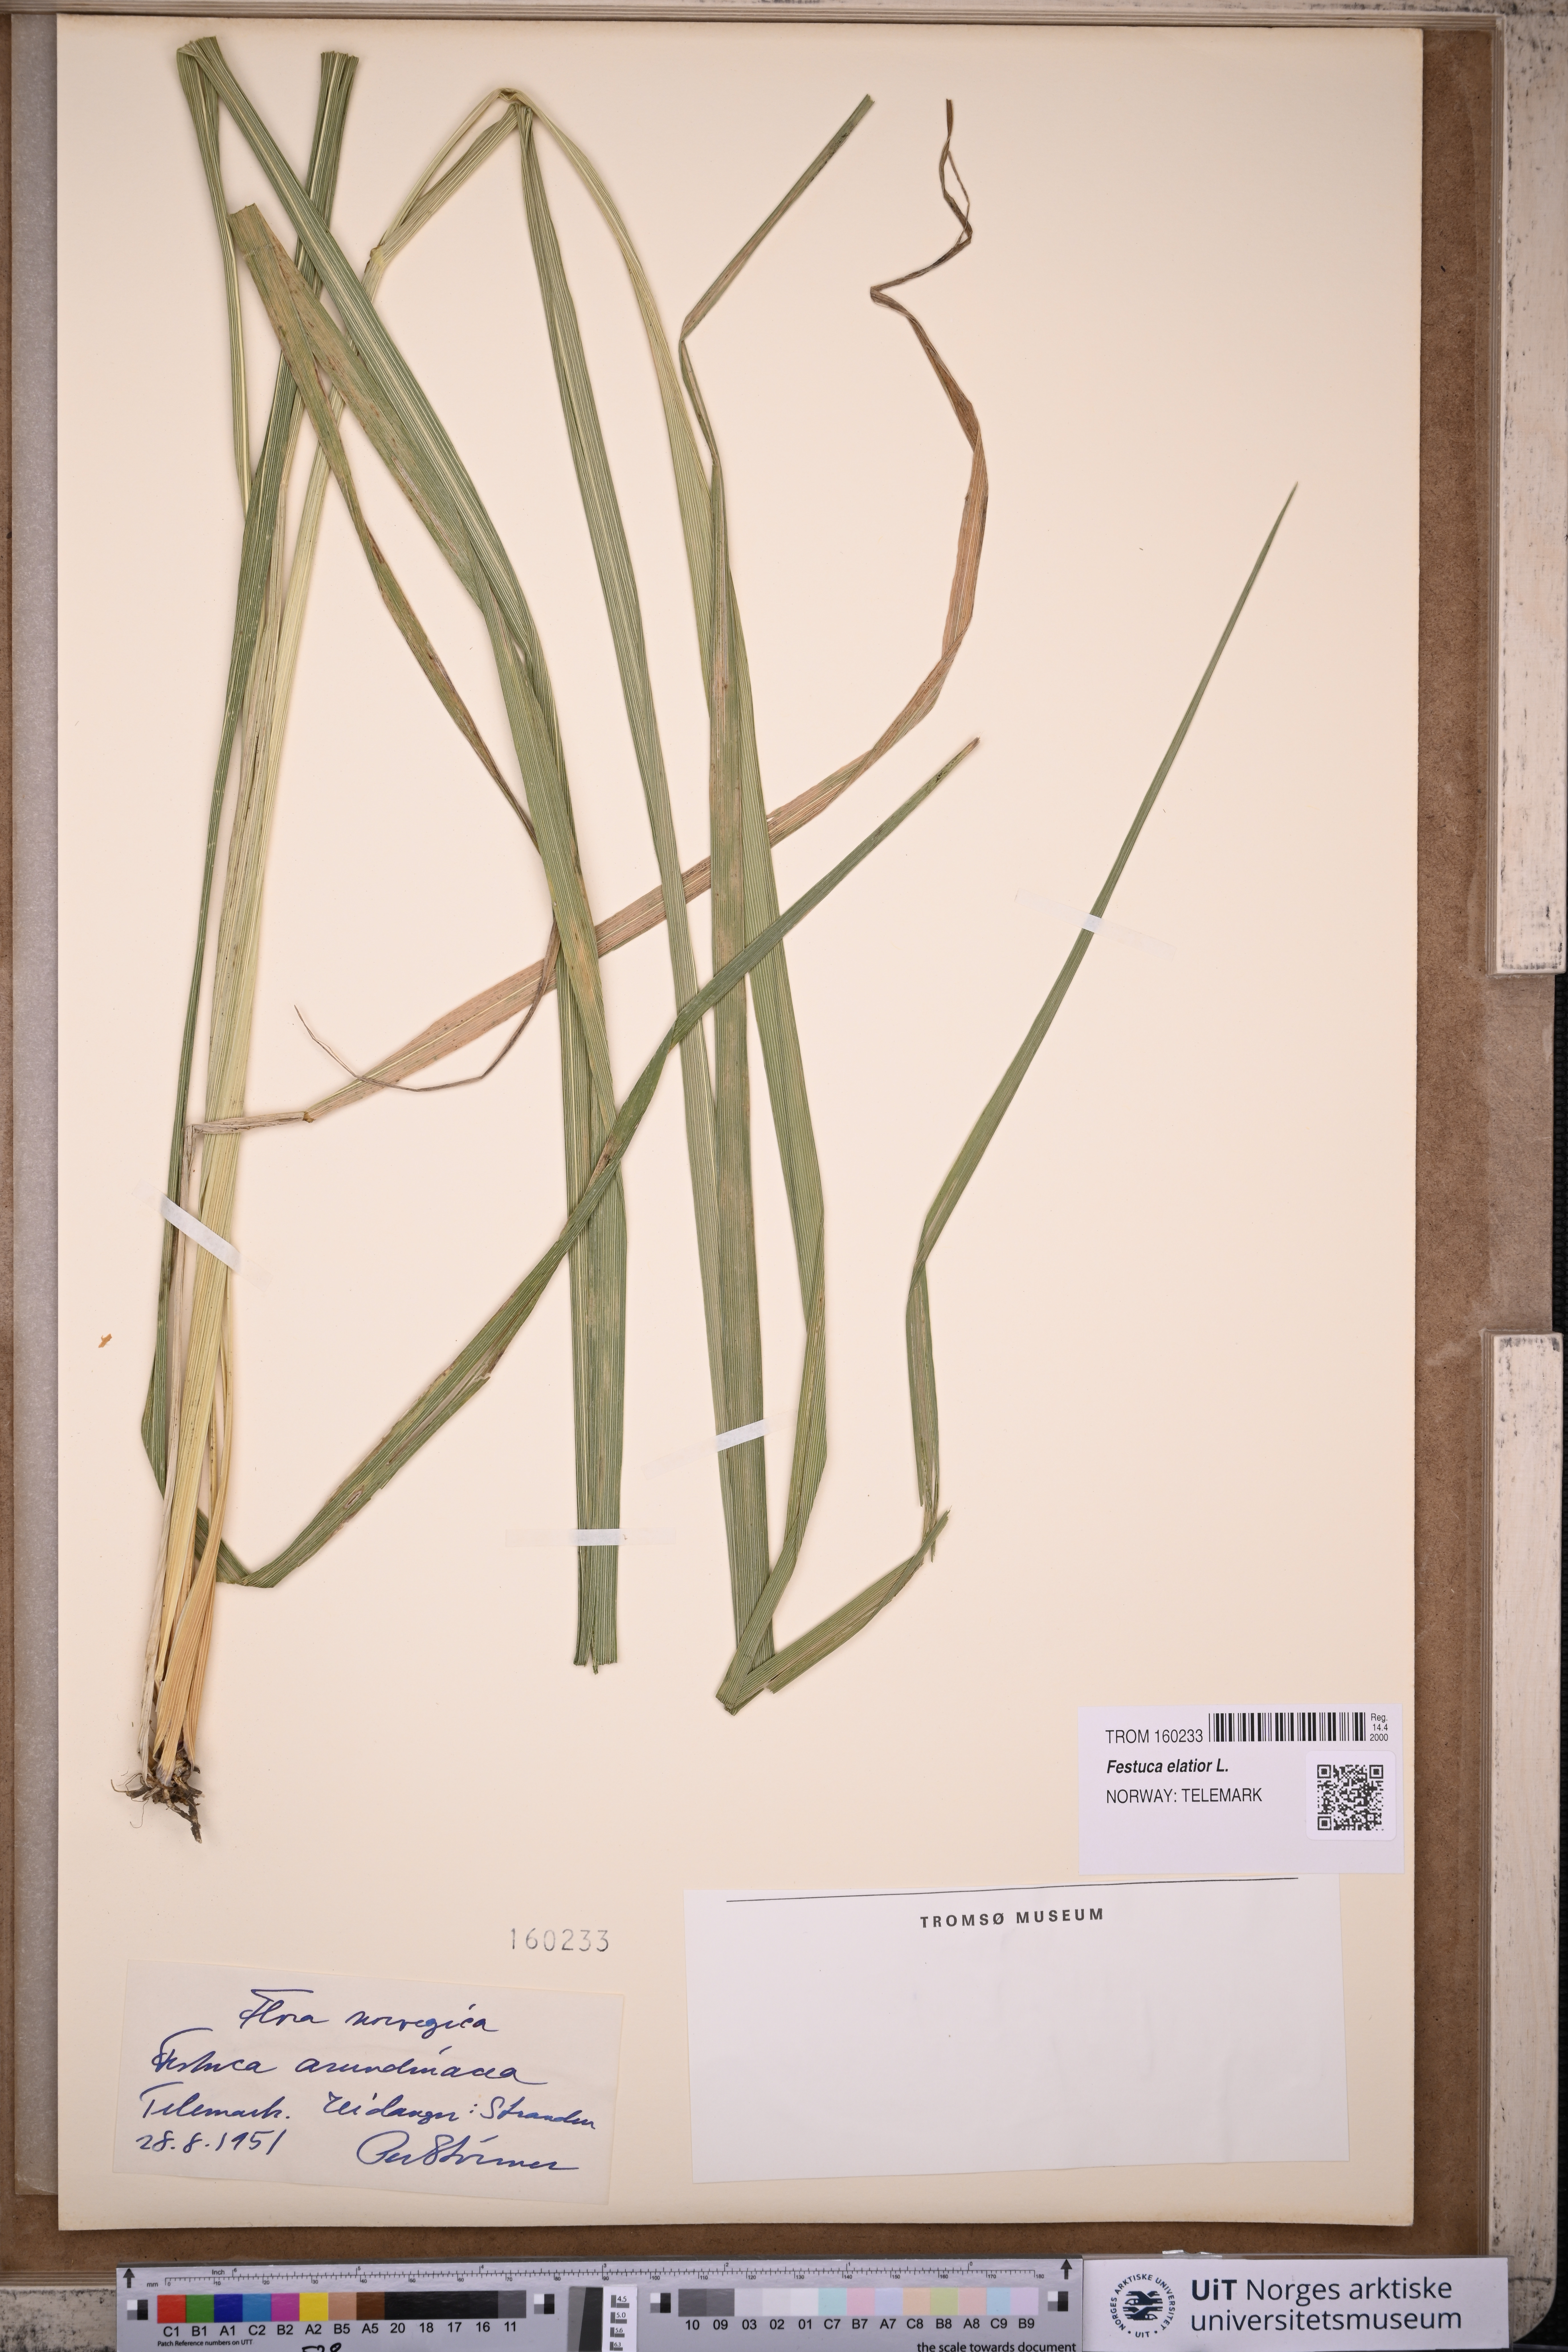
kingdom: Plantae
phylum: Tracheophyta
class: Liliopsida
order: Poales
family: Poaceae
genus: Lolium
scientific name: Lolium arundinaceum
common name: Reed fescue
